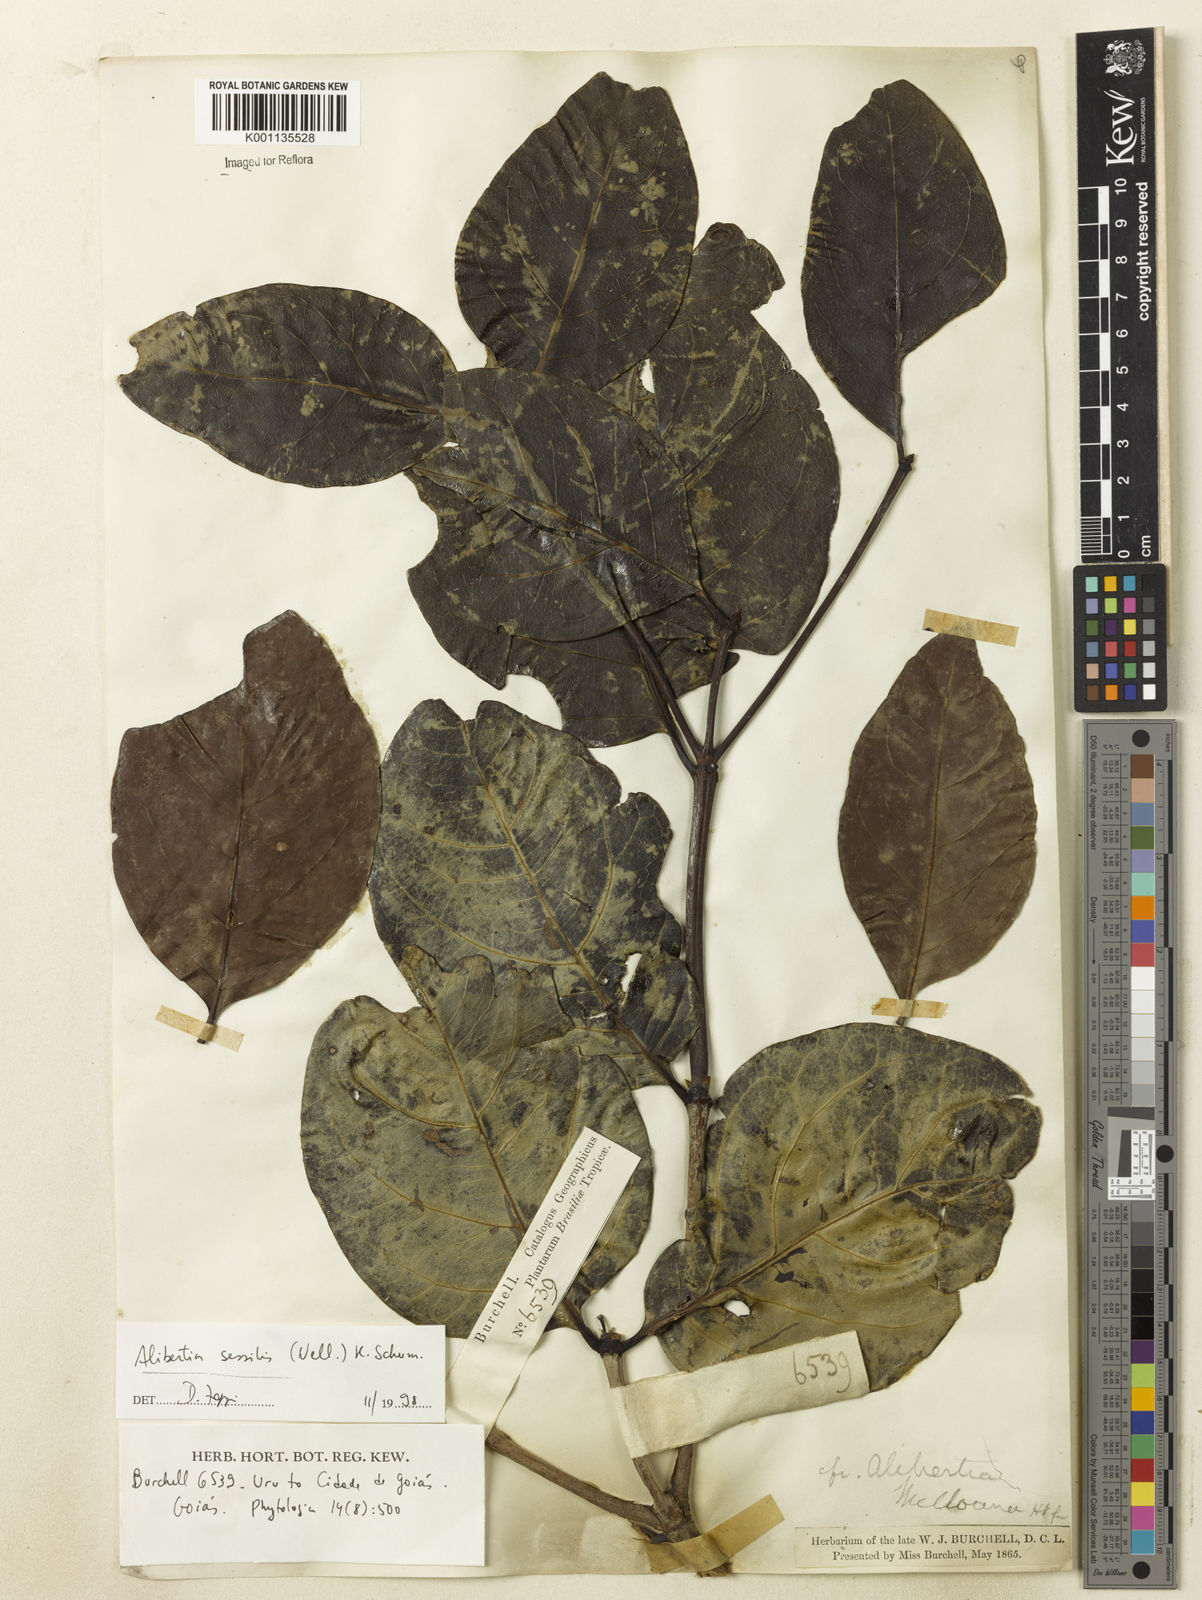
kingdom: Plantae
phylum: Tracheophyta
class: Magnoliopsida
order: Gentianales
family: Rubiaceae
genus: Cordiera
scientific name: Cordiera sessilis
